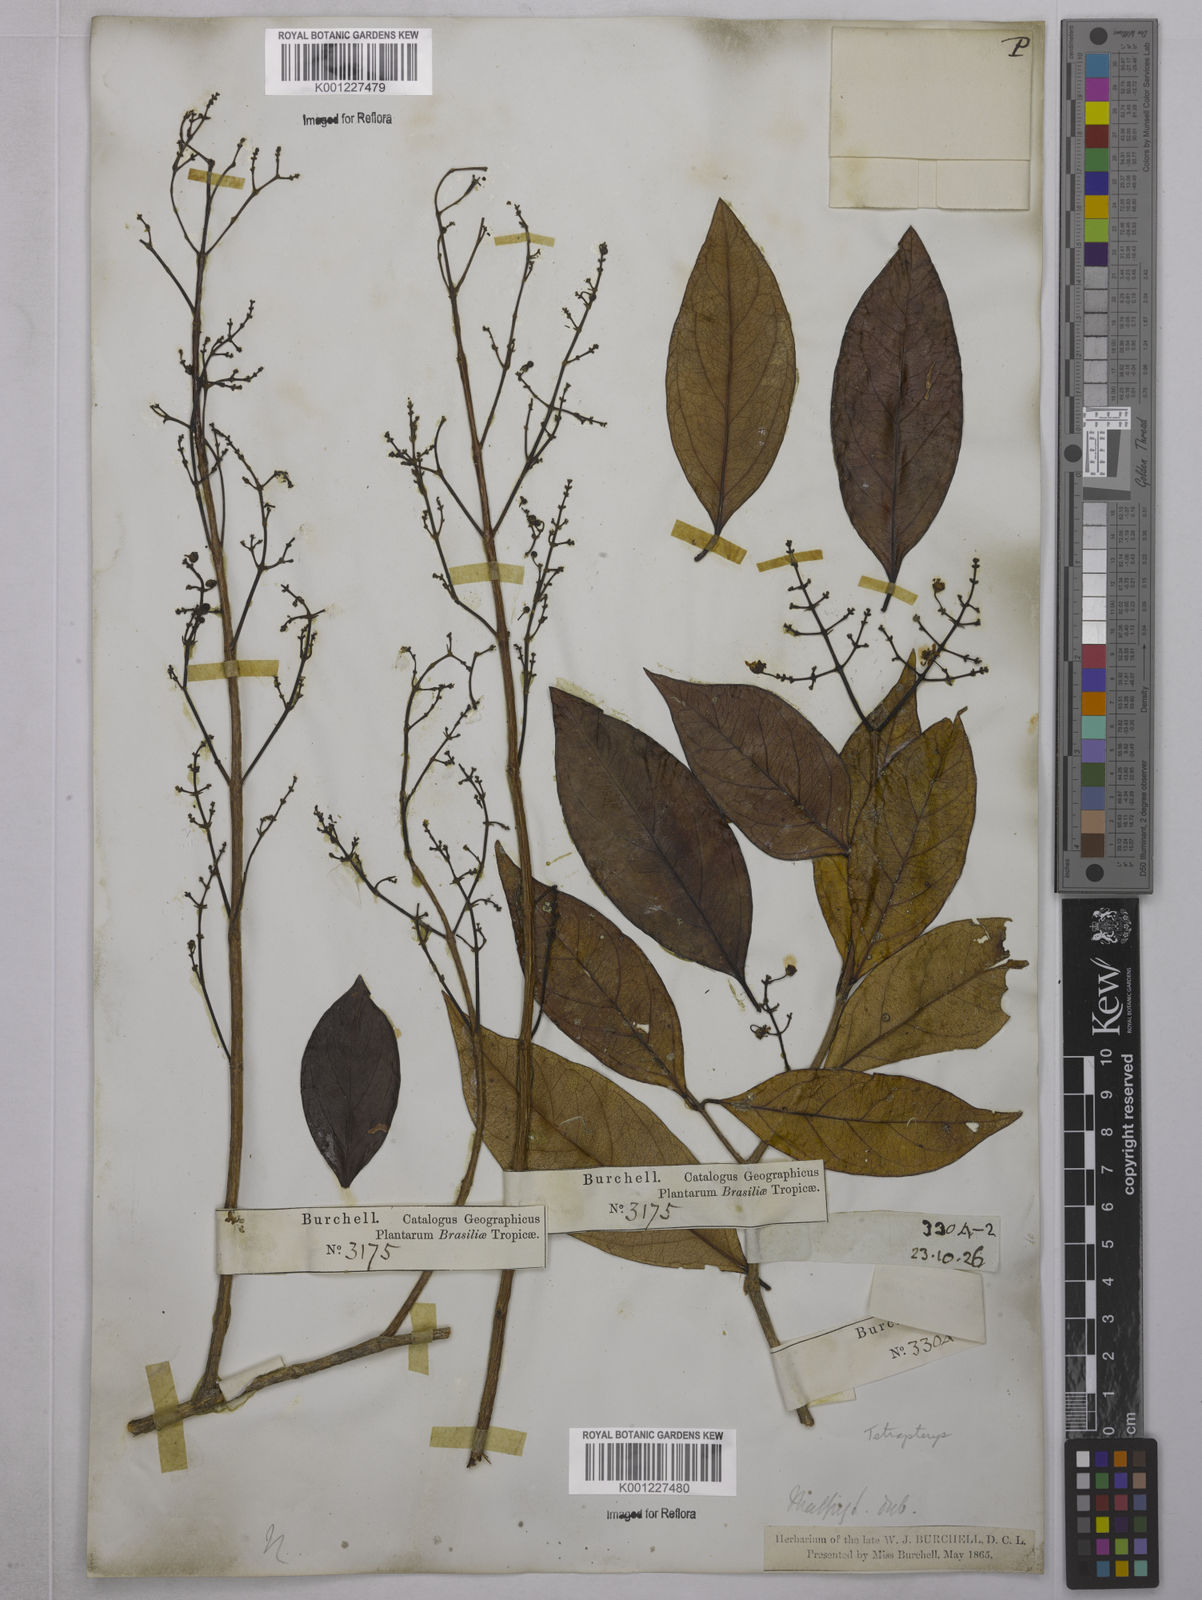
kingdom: Plantae
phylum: Tracheophyta
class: Magnoliopsida
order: Malpighiales
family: Malpighiaceae
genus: Tetrapterys
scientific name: Tetrapterys
